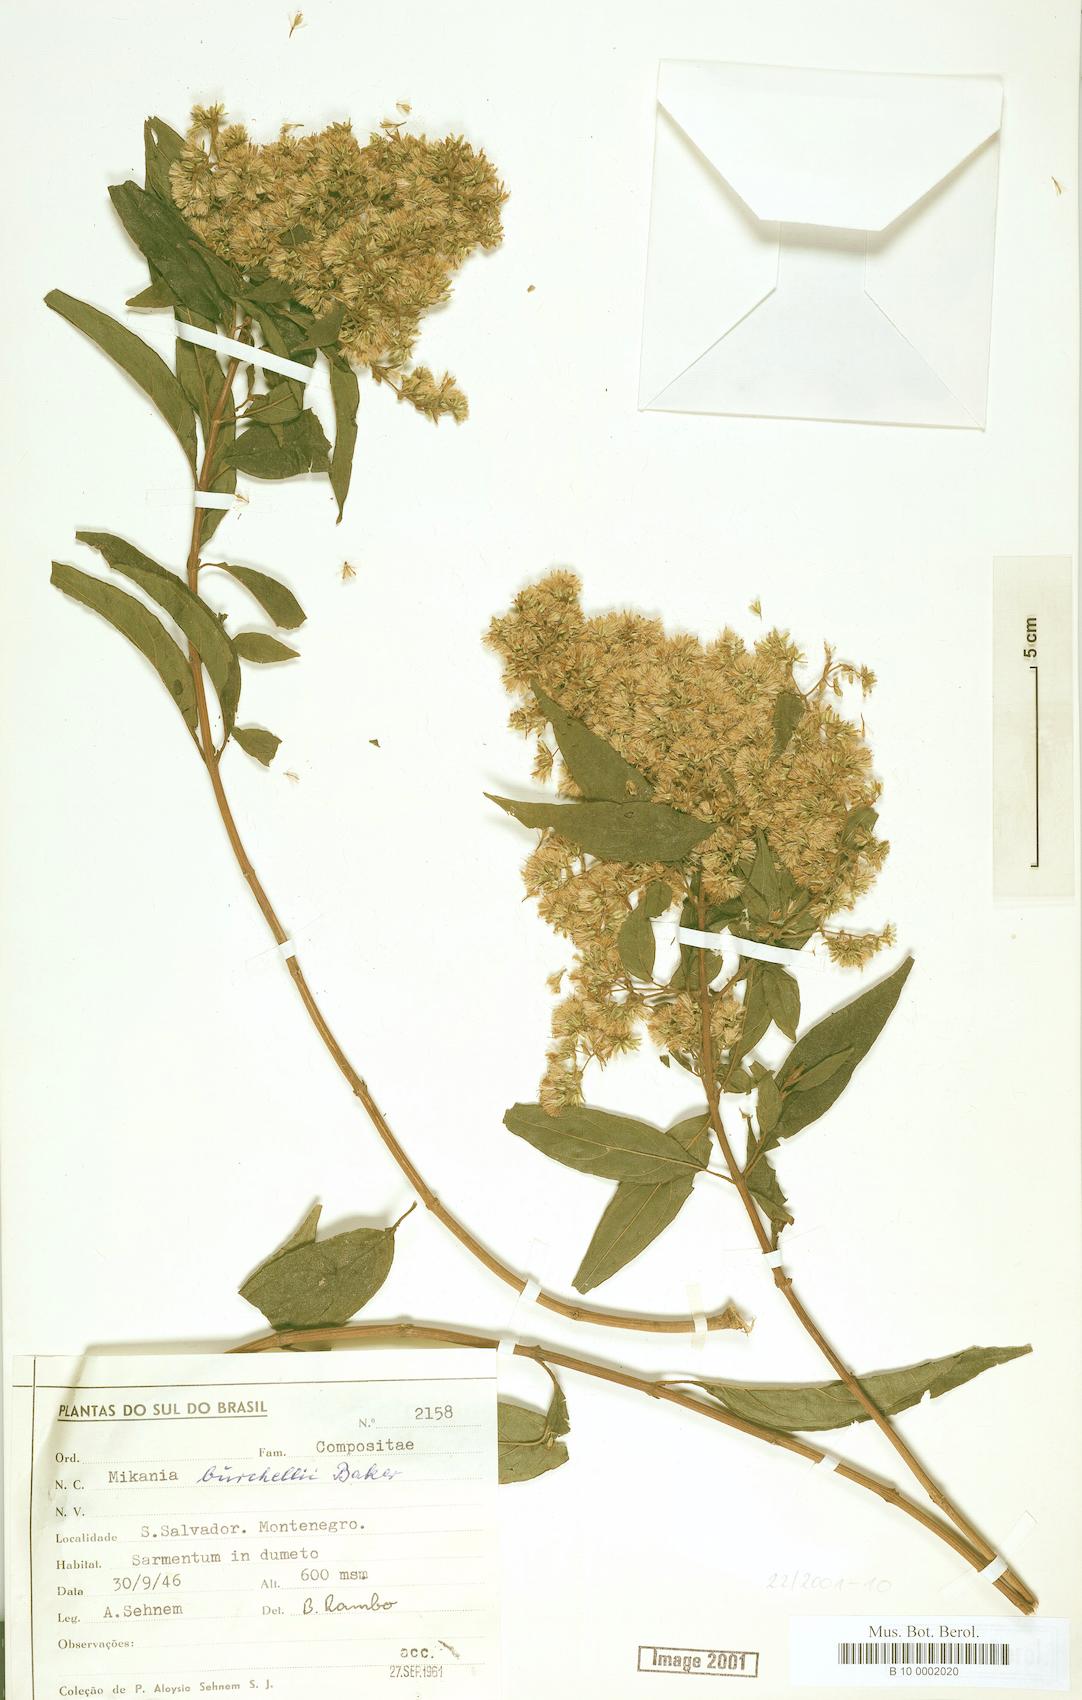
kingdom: Plantae
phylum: Tracheophyta
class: Magnoliopsida
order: Asterales
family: Asteraceae
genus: Mikania
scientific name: Mikania burchellii
